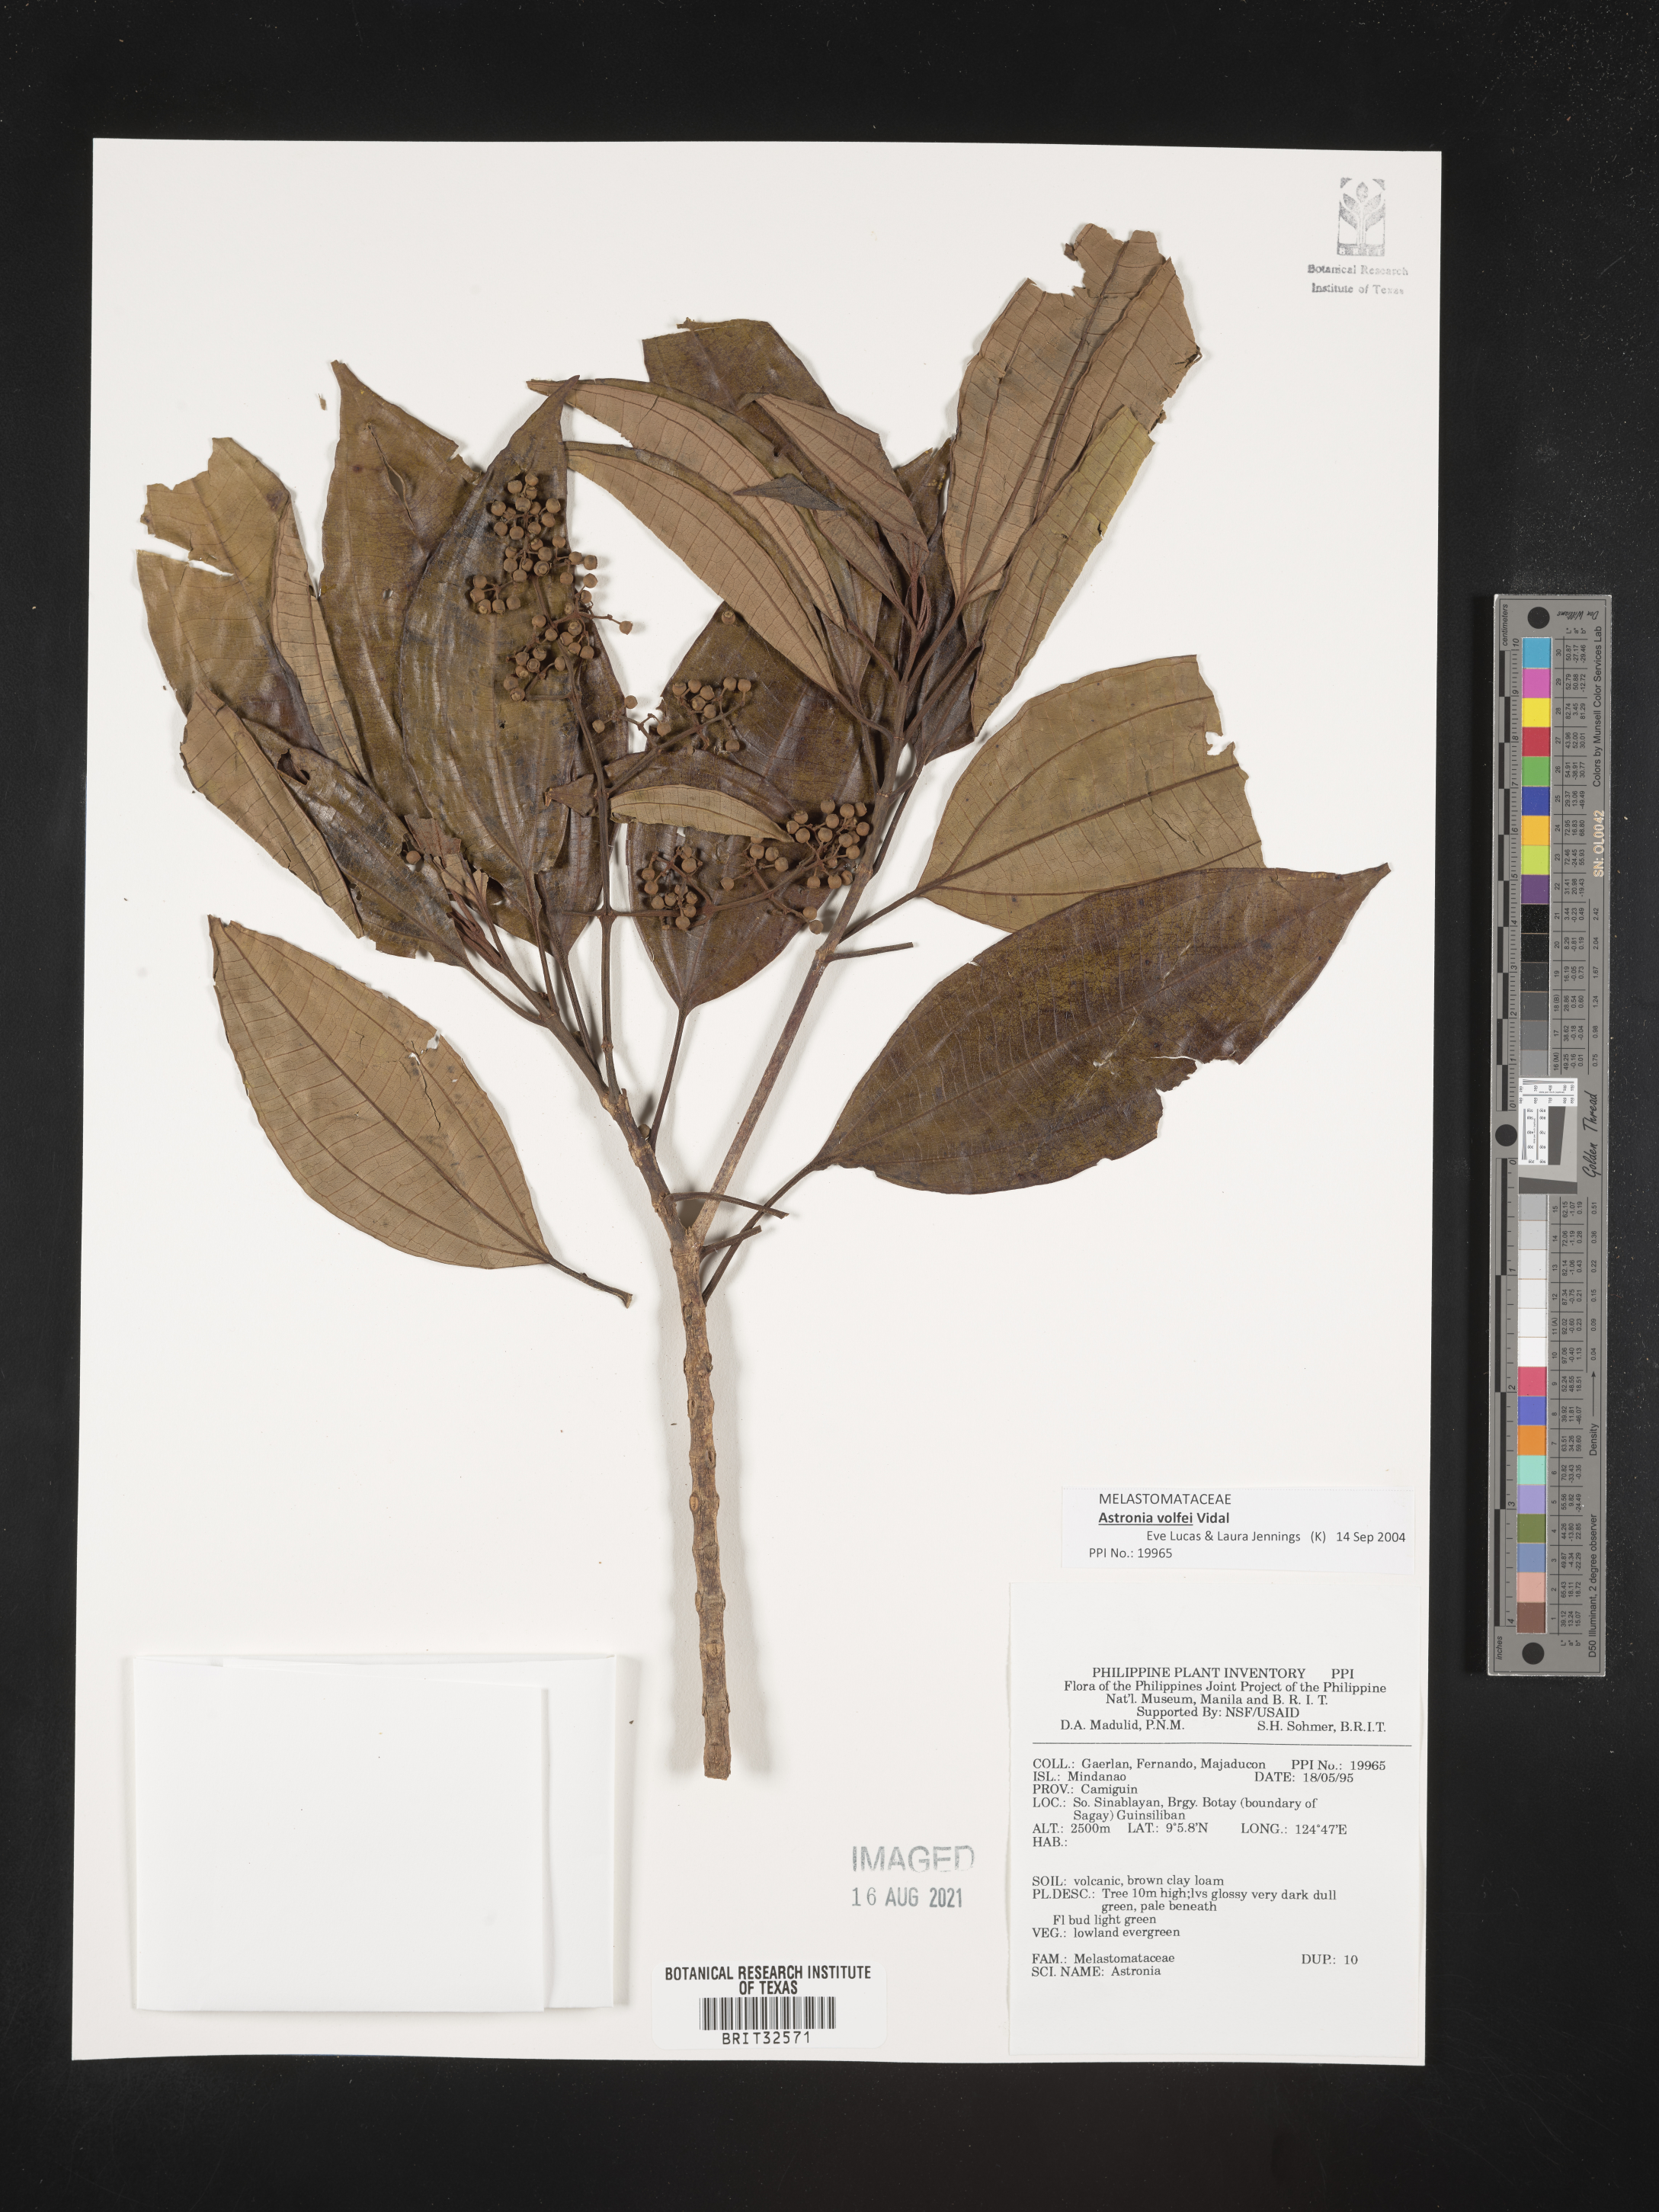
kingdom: Plantae
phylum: Tracheophyta
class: Magnoliopsida
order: Myrtales
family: Melastomataceae
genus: Astronia
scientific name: Astronia
